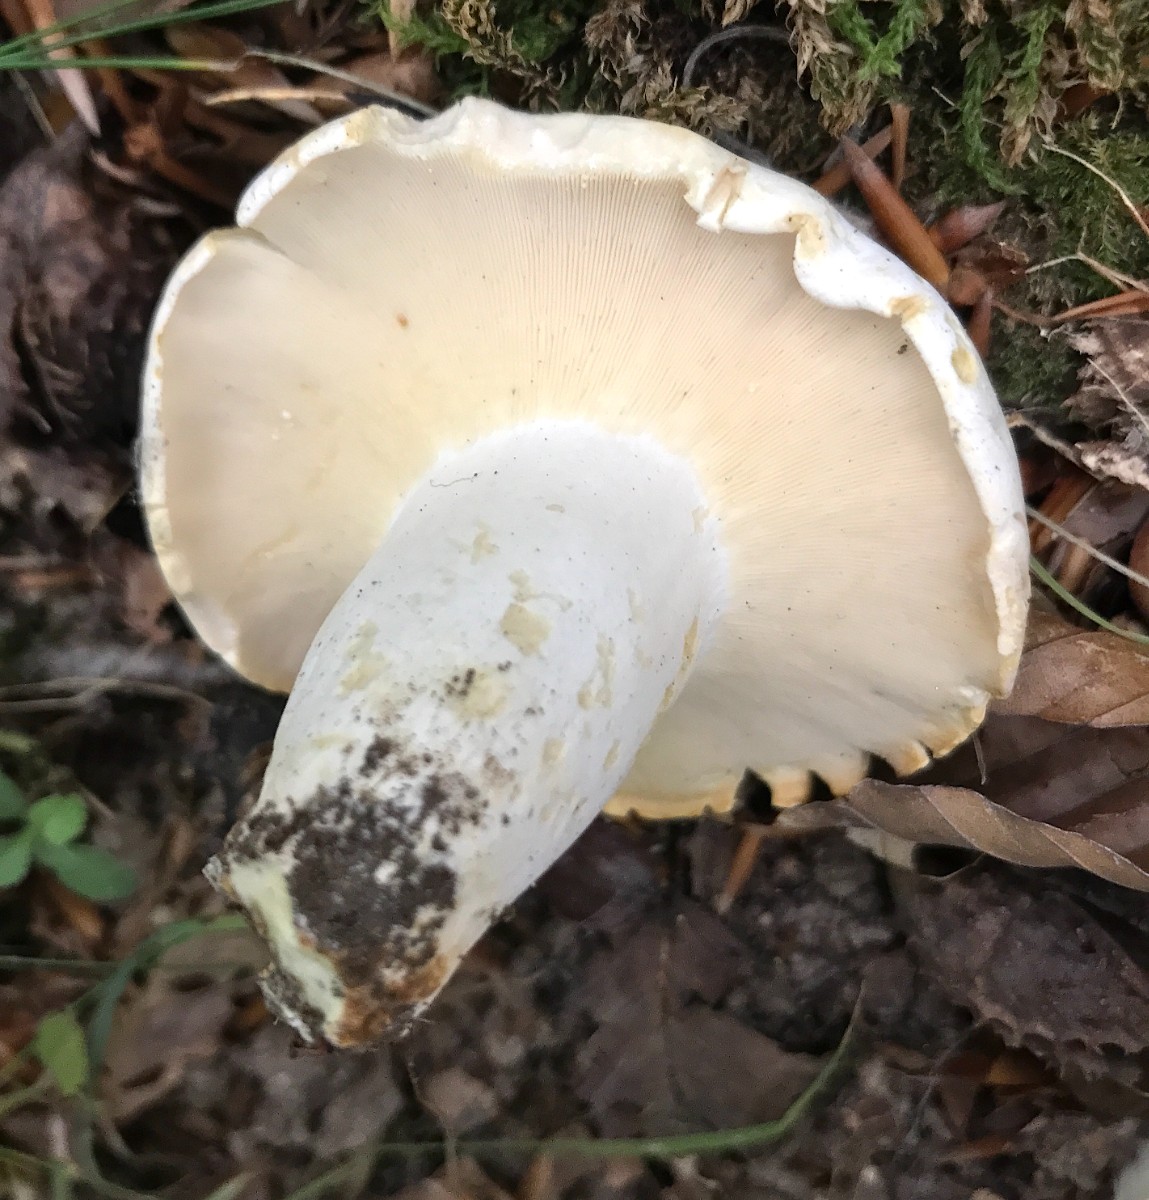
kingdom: Fungi
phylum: Basidiomycota
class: Agaricomycetes
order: Russulales
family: Russulaceae
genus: Lactifluus
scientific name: Lactifluus piperatus
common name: peber-mælkehat
